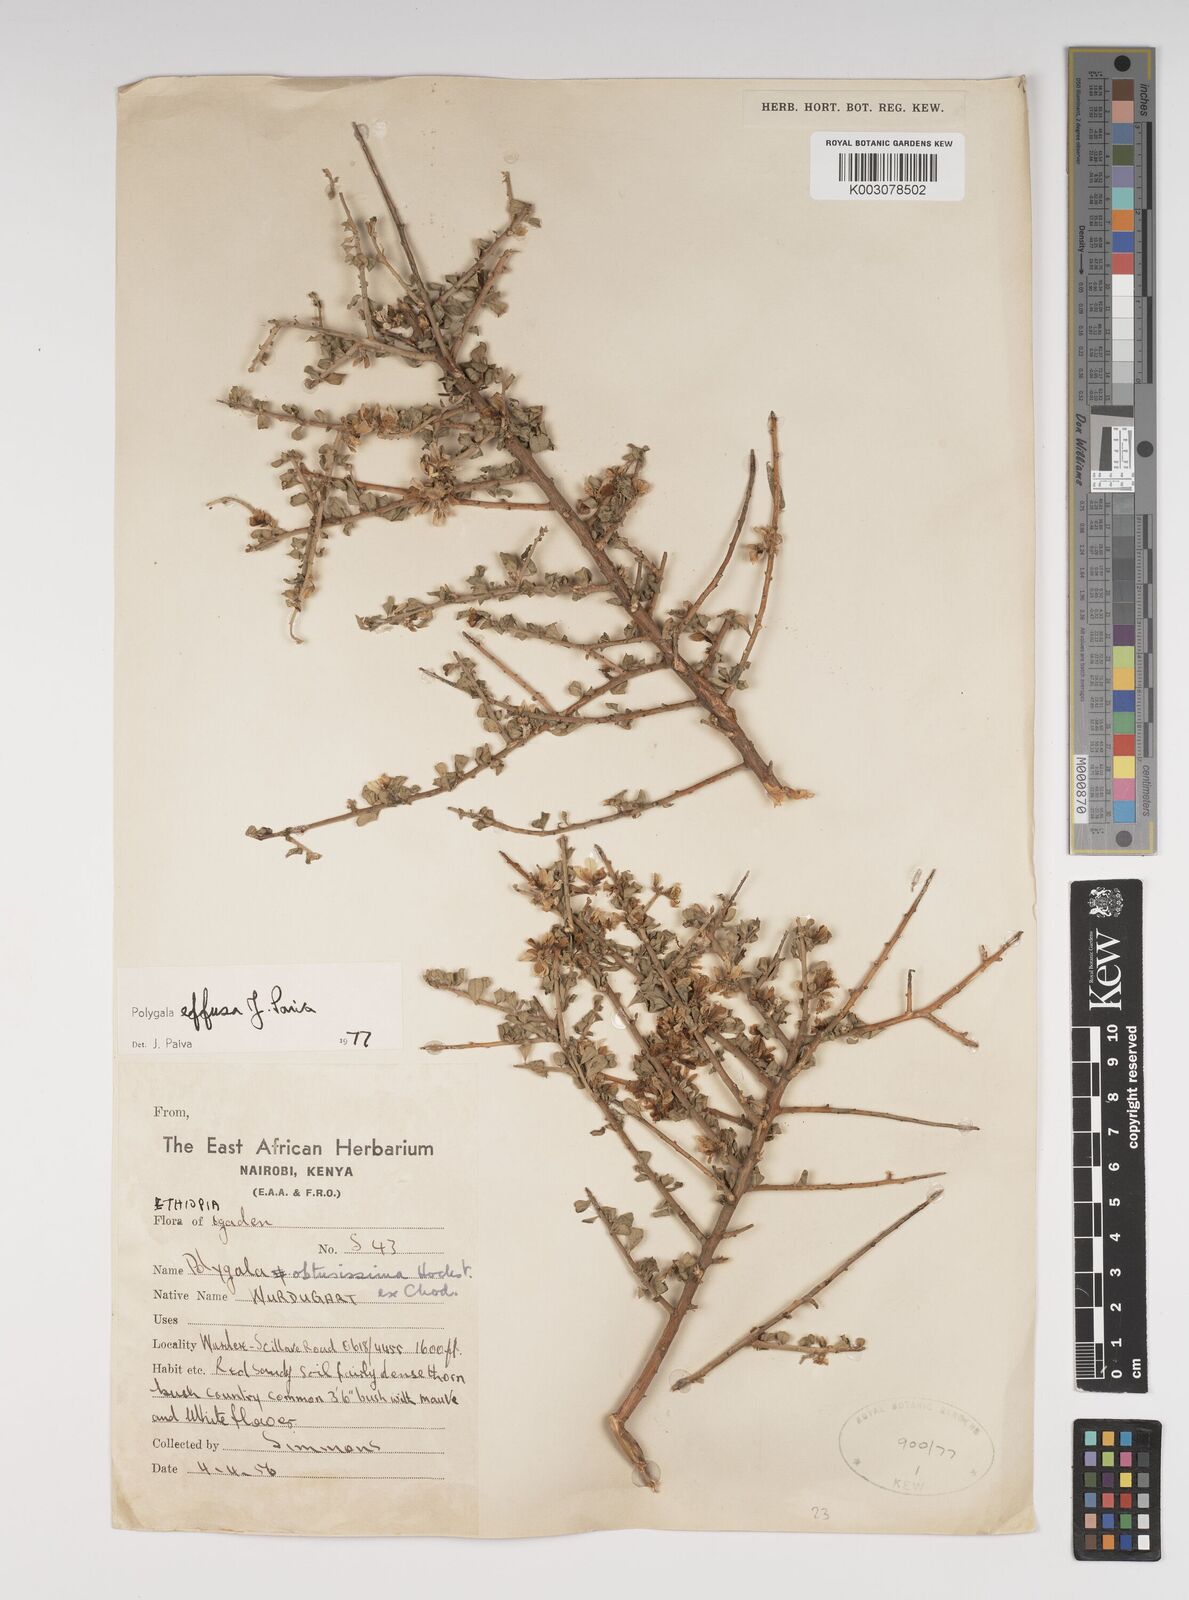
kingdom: Plantae
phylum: Tracheophyta
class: Magnoliopsida
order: Fabales
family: Polygalaceae
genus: Polygala
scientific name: Polygala effusa
